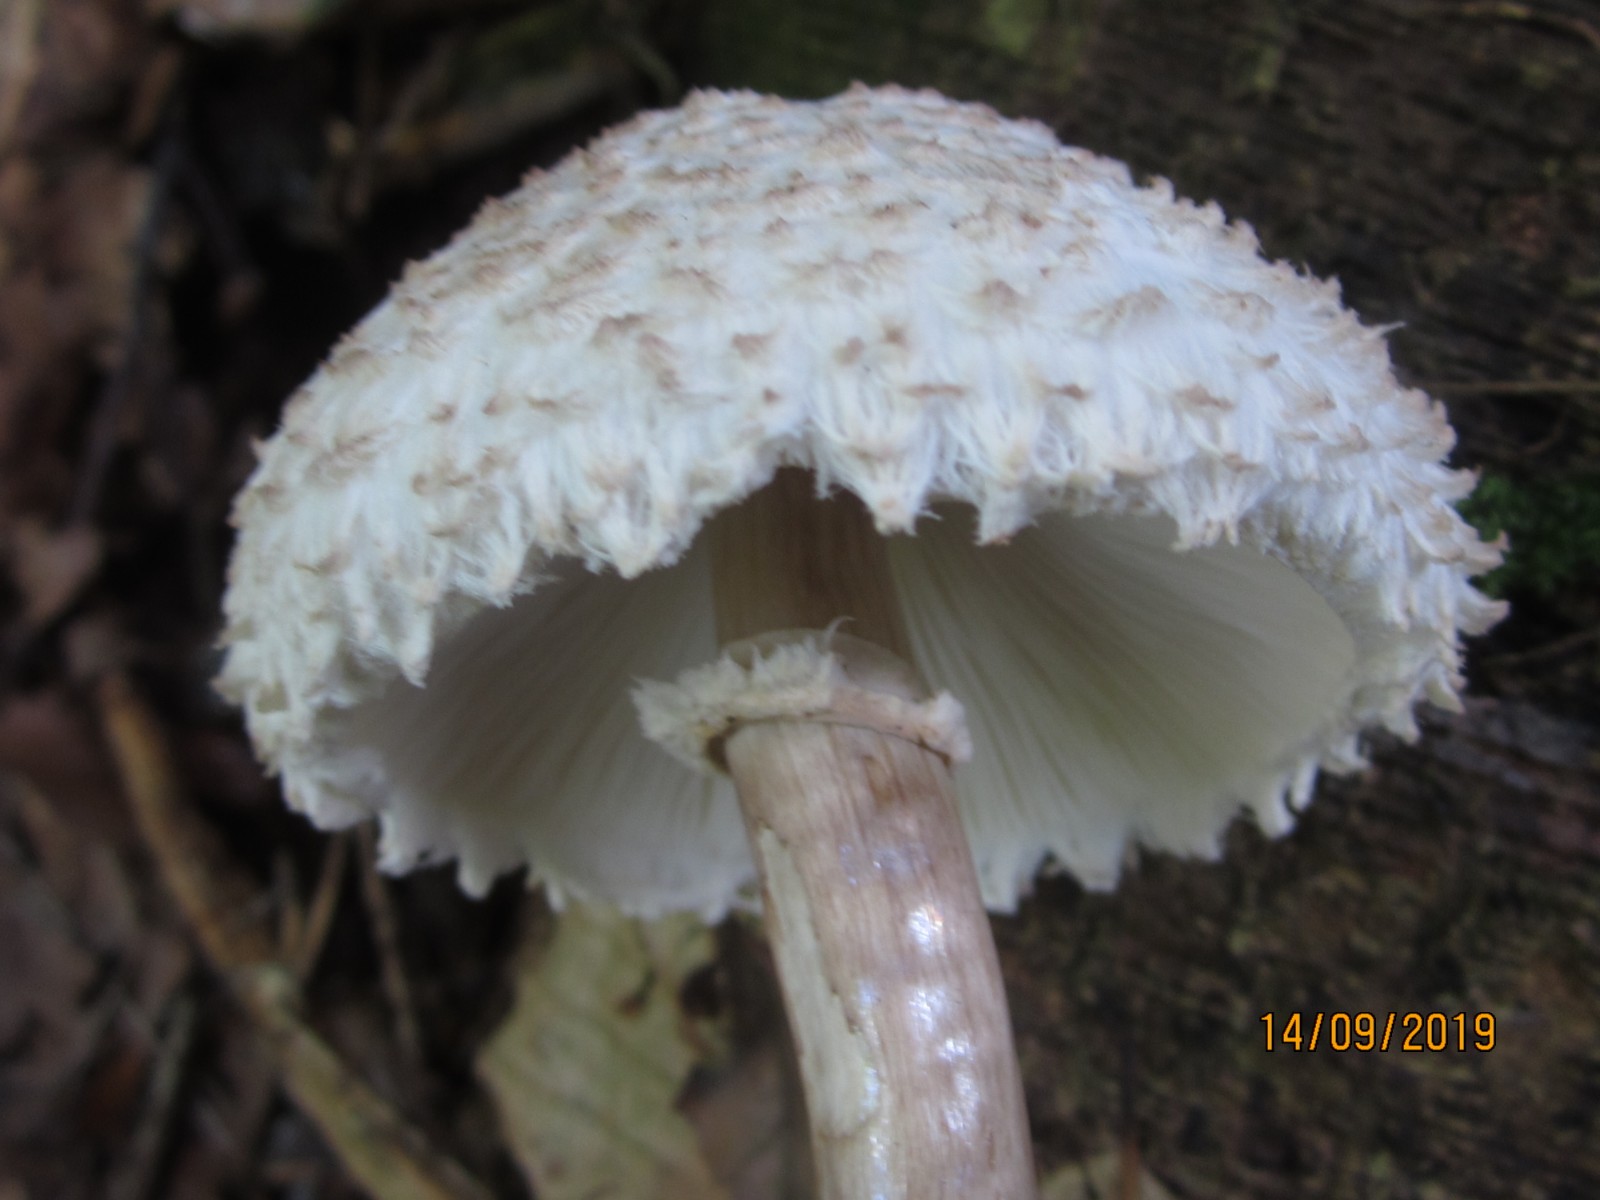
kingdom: Fungi
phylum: Basidiomycota
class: Agaricomycetes
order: Agaricales
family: Agaricaceae
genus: Leucoagaricus
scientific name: Leucoagaricus nympharum
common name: gran-silkehat
